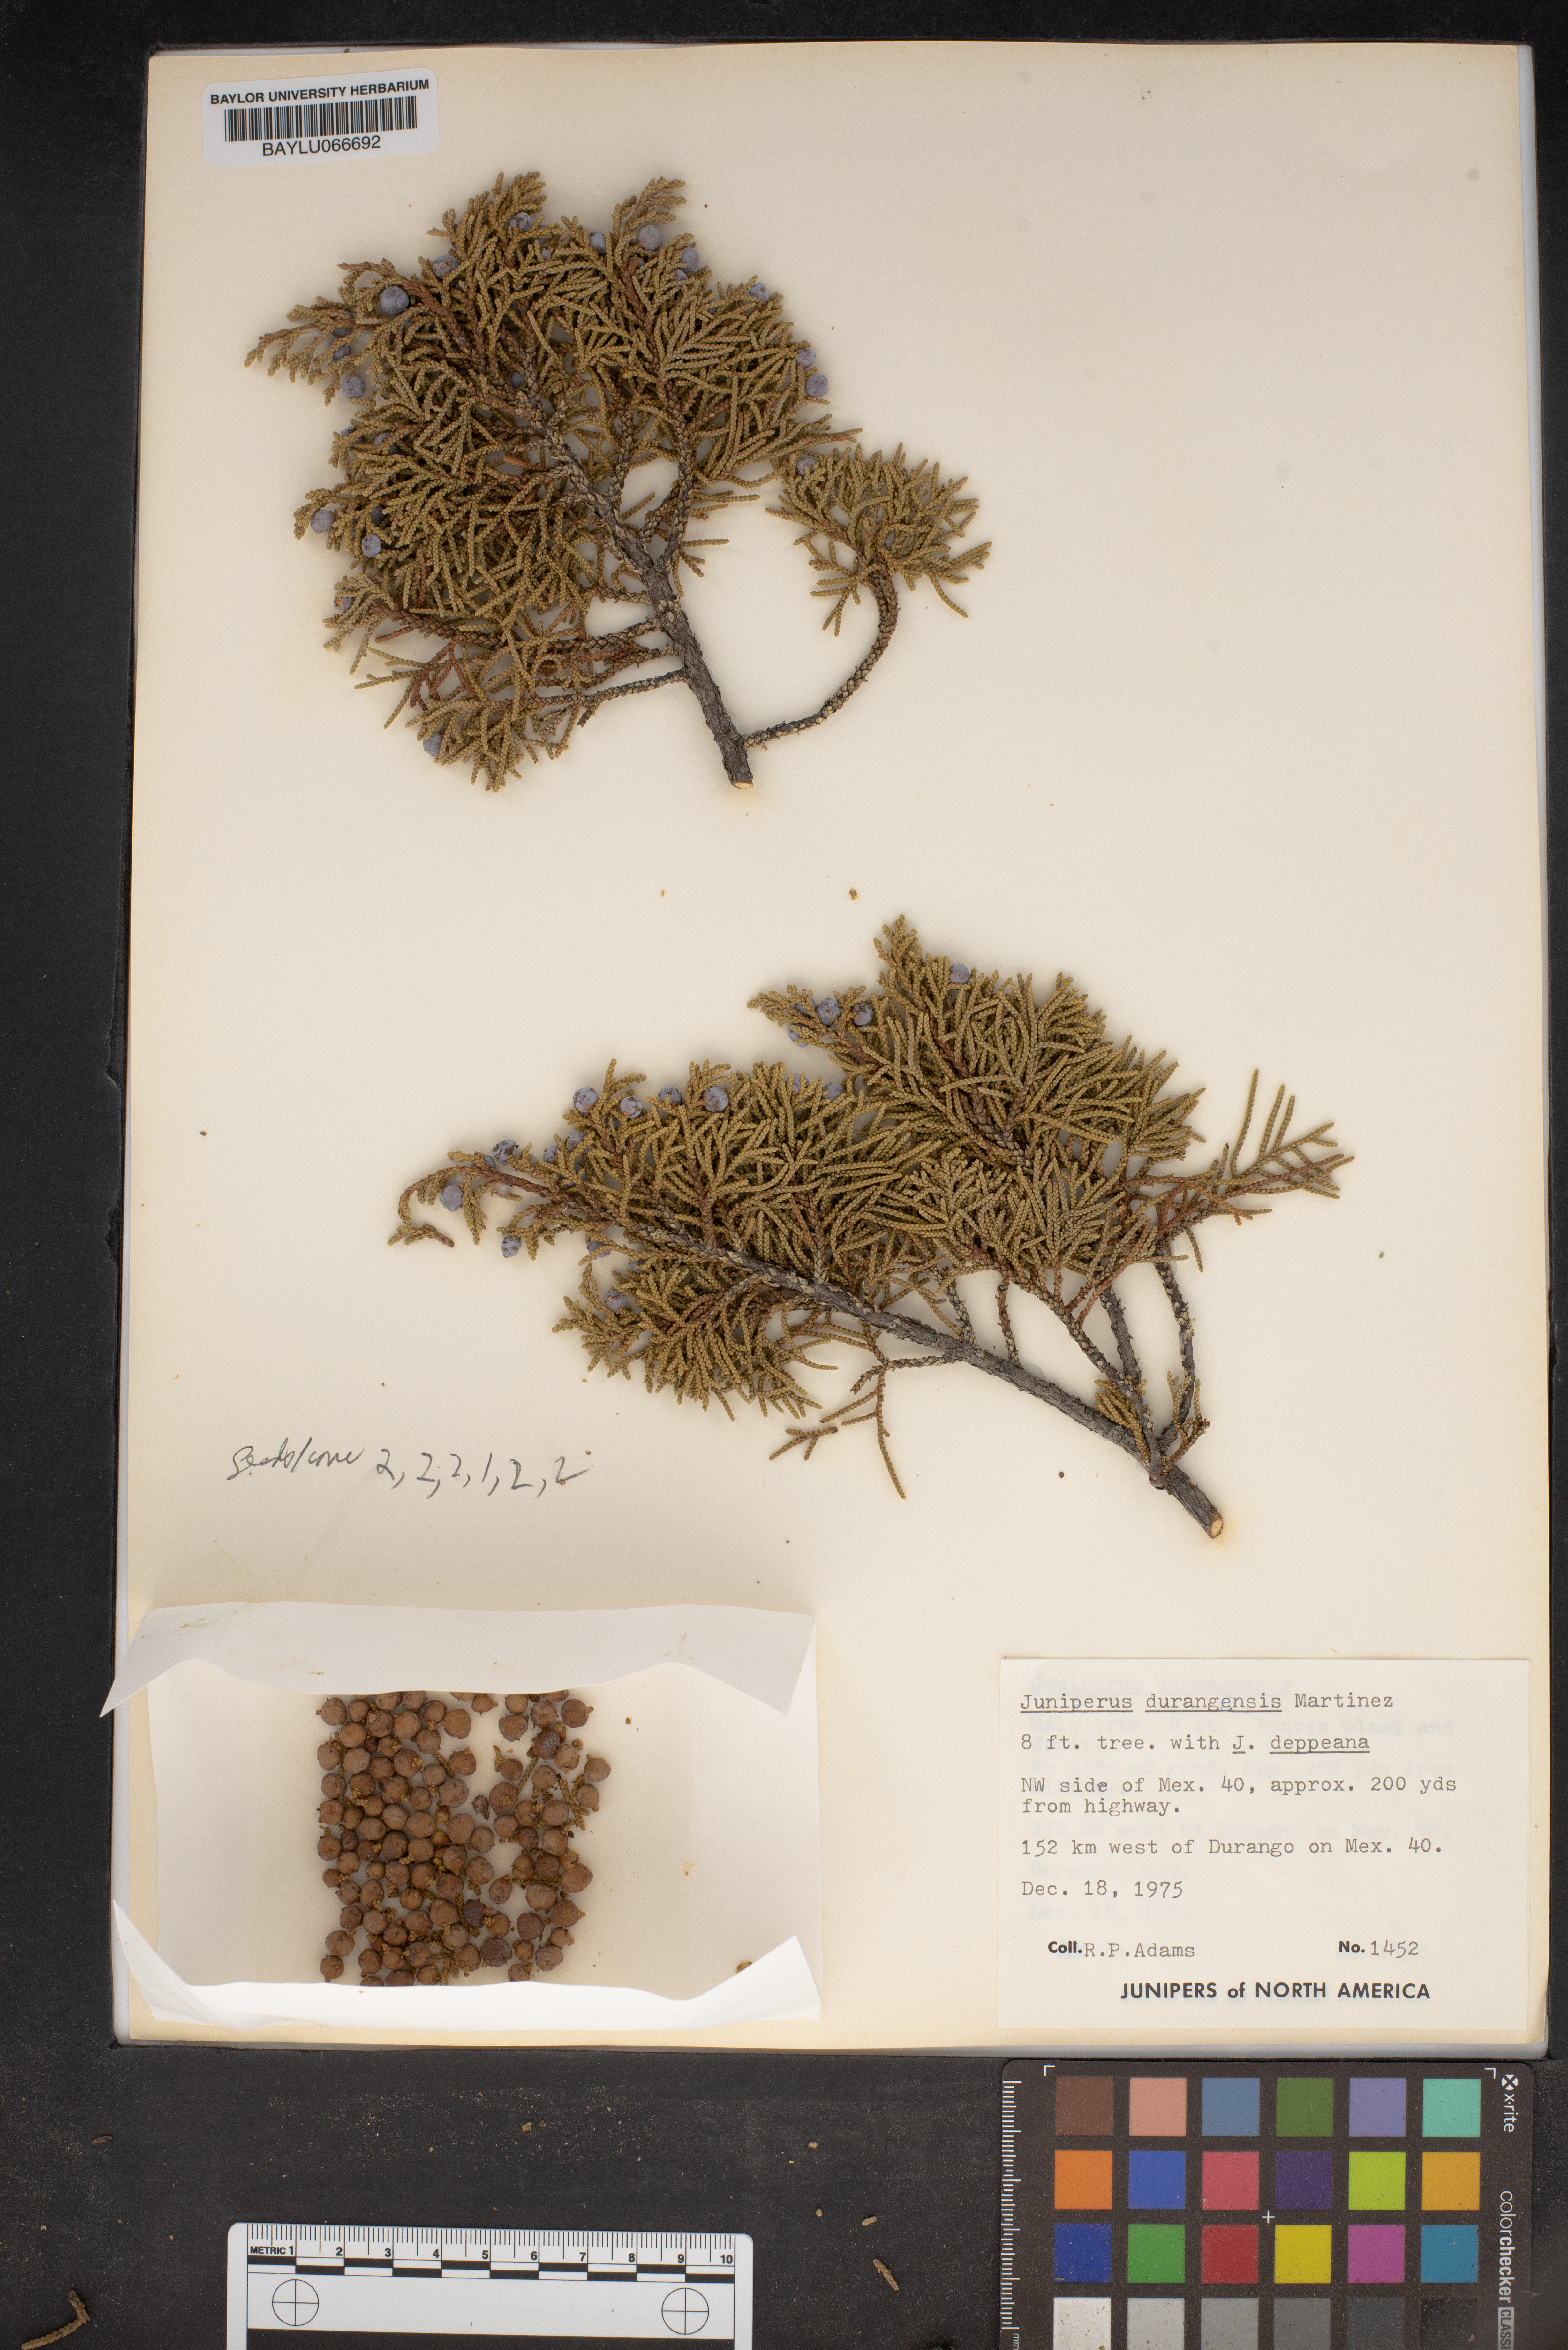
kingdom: Plantae
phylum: Tracheophyta
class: Pinopsida
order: Pinales
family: Cupressaceae
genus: Juniperus
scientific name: Juniperus durangensis
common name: Durango juniper
